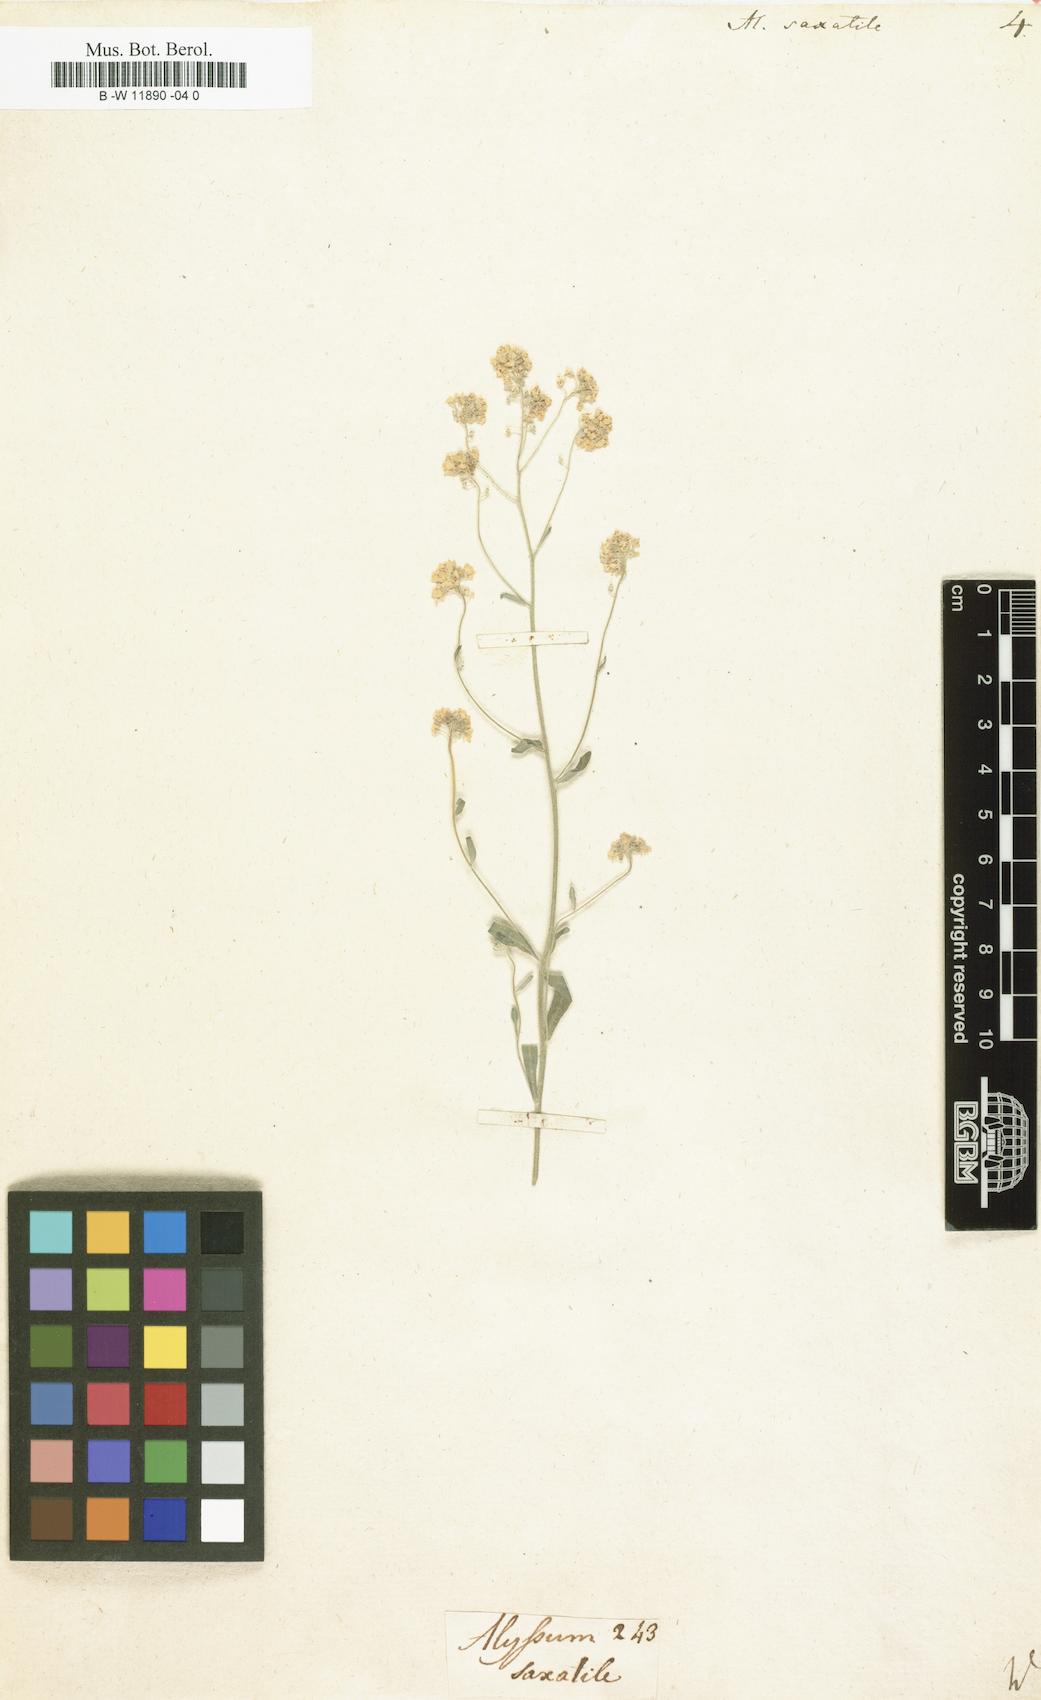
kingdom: Plantae
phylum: Tracheophyta
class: Magnoliopsida
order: Brassicales
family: Brassicaceae
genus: Aurinia
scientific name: Aurinia saxatilis
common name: Golden-tuft alyssum
